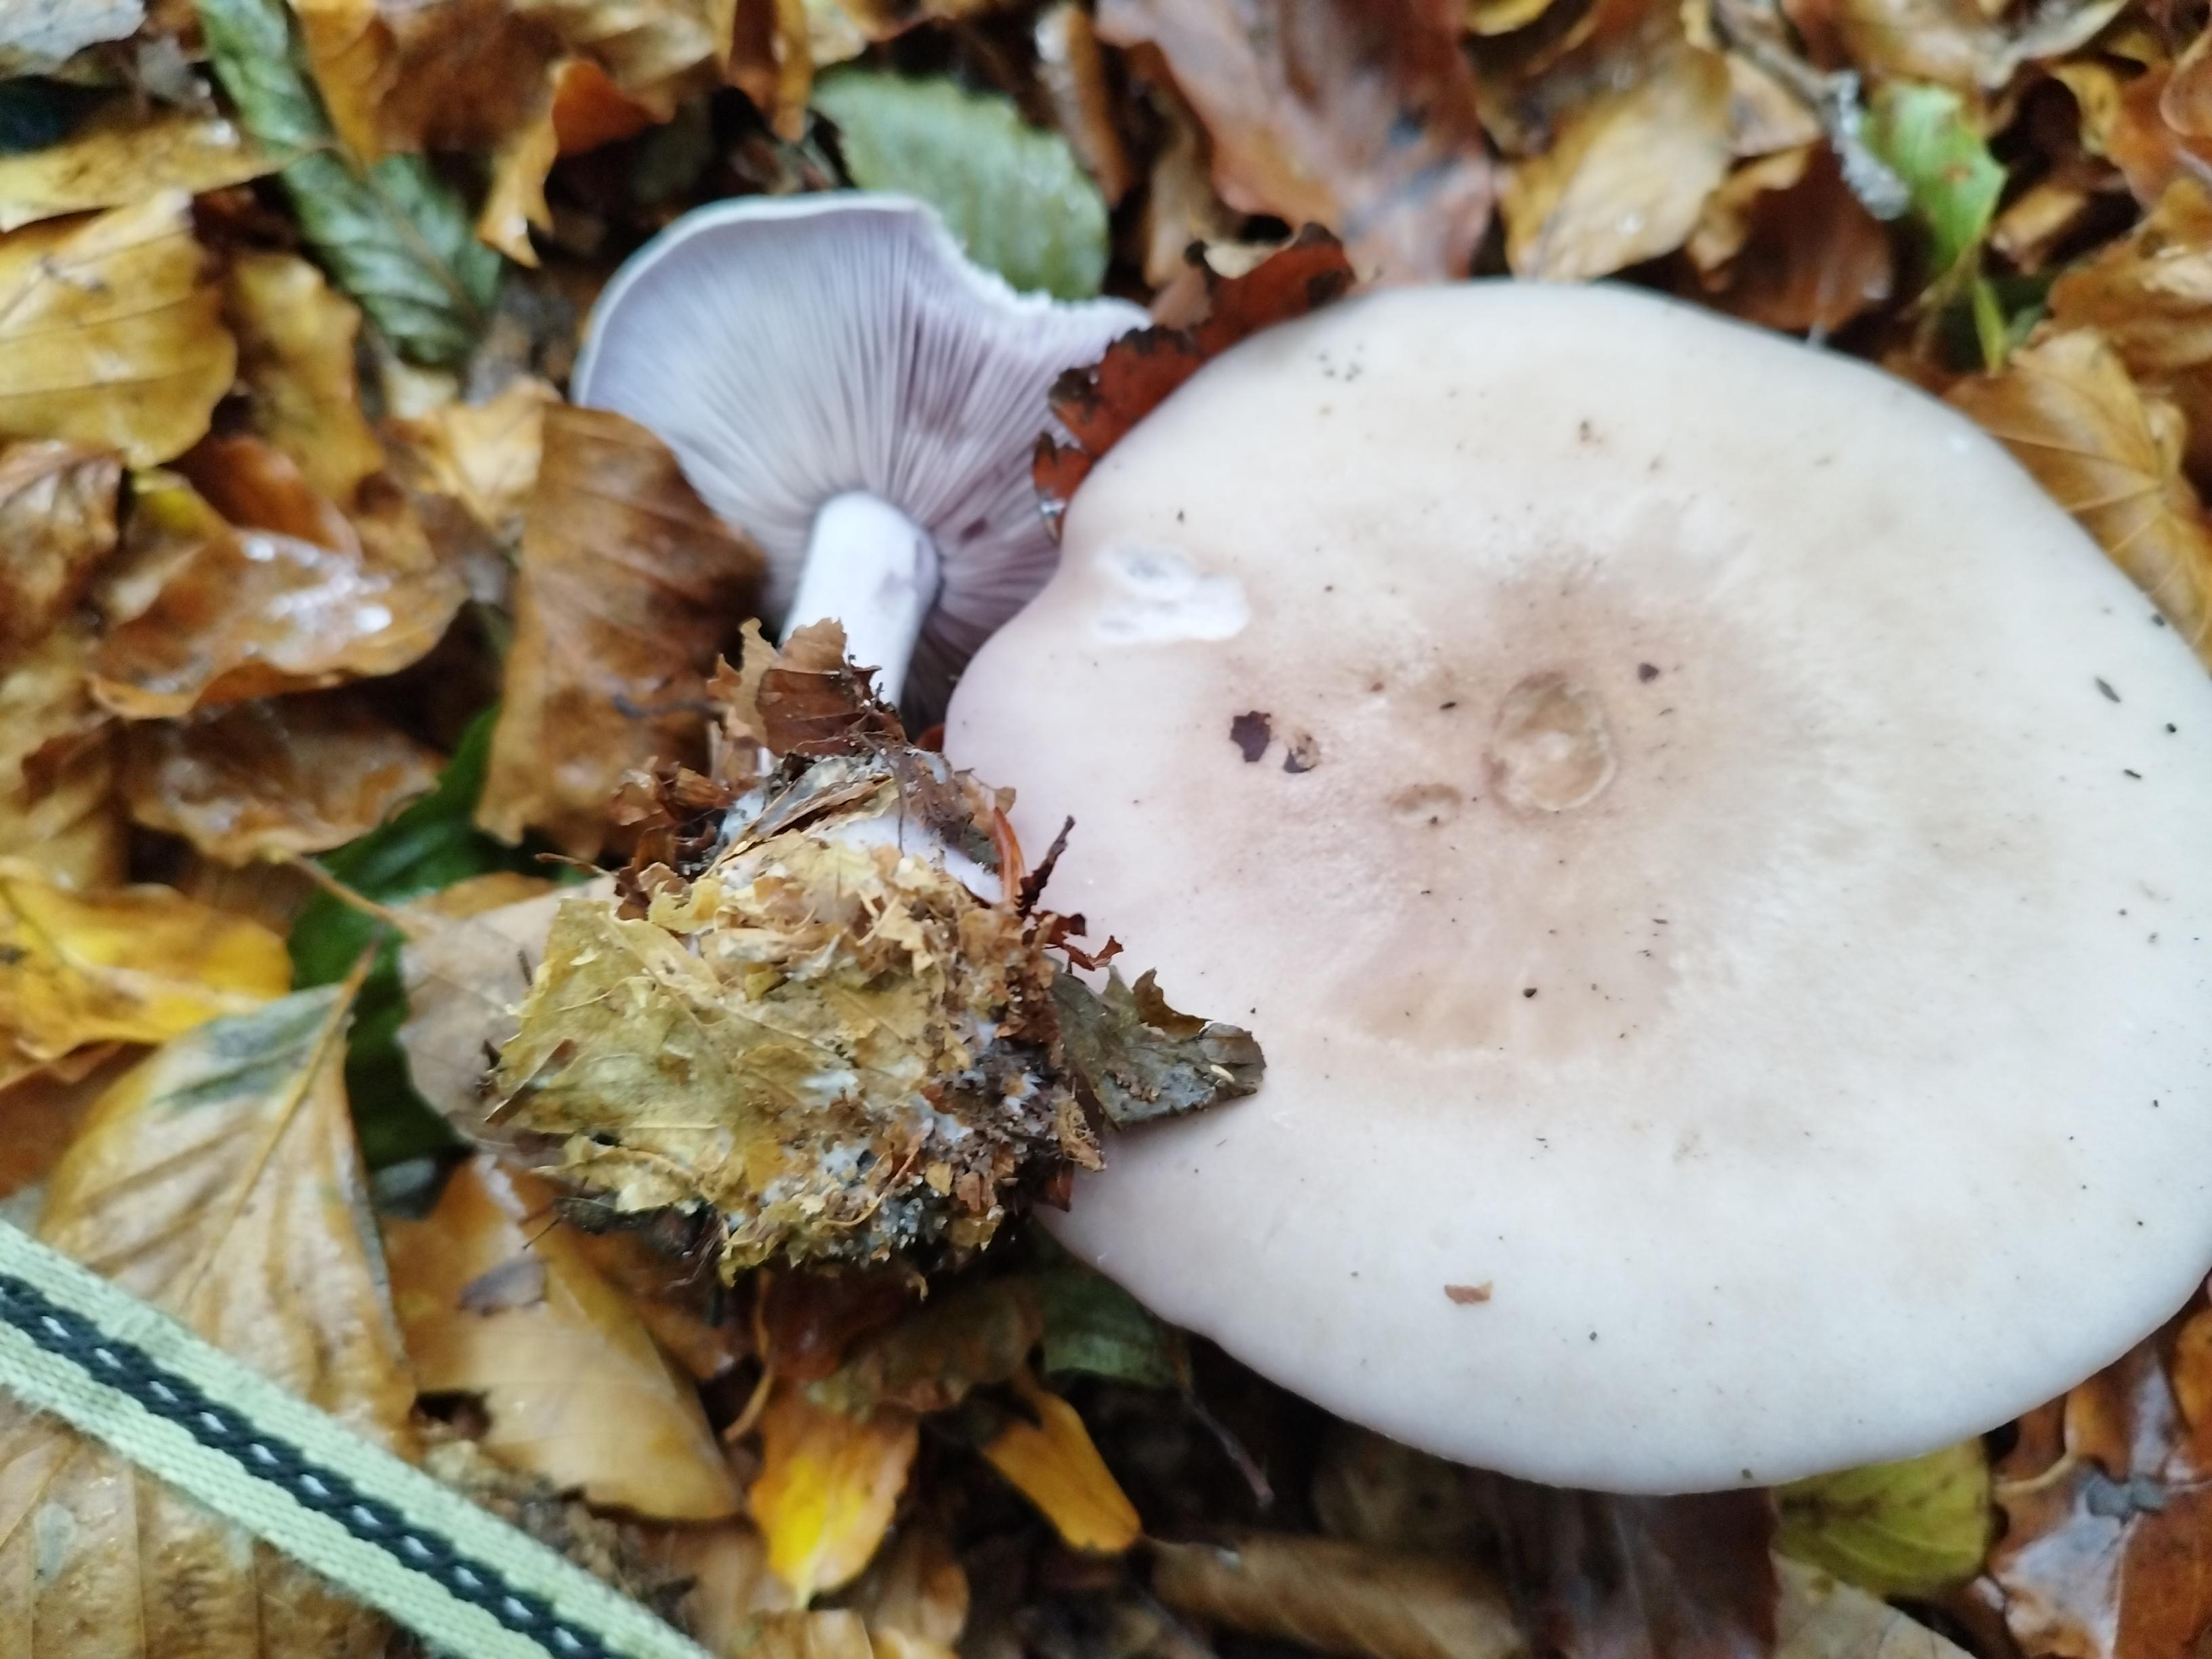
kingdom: Fungi
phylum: Basidiomycota
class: Agaricomycetes
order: Agaricales
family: Tricholomataceae
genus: Lepista
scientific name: Lepista nuda
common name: violet hekseringshat
